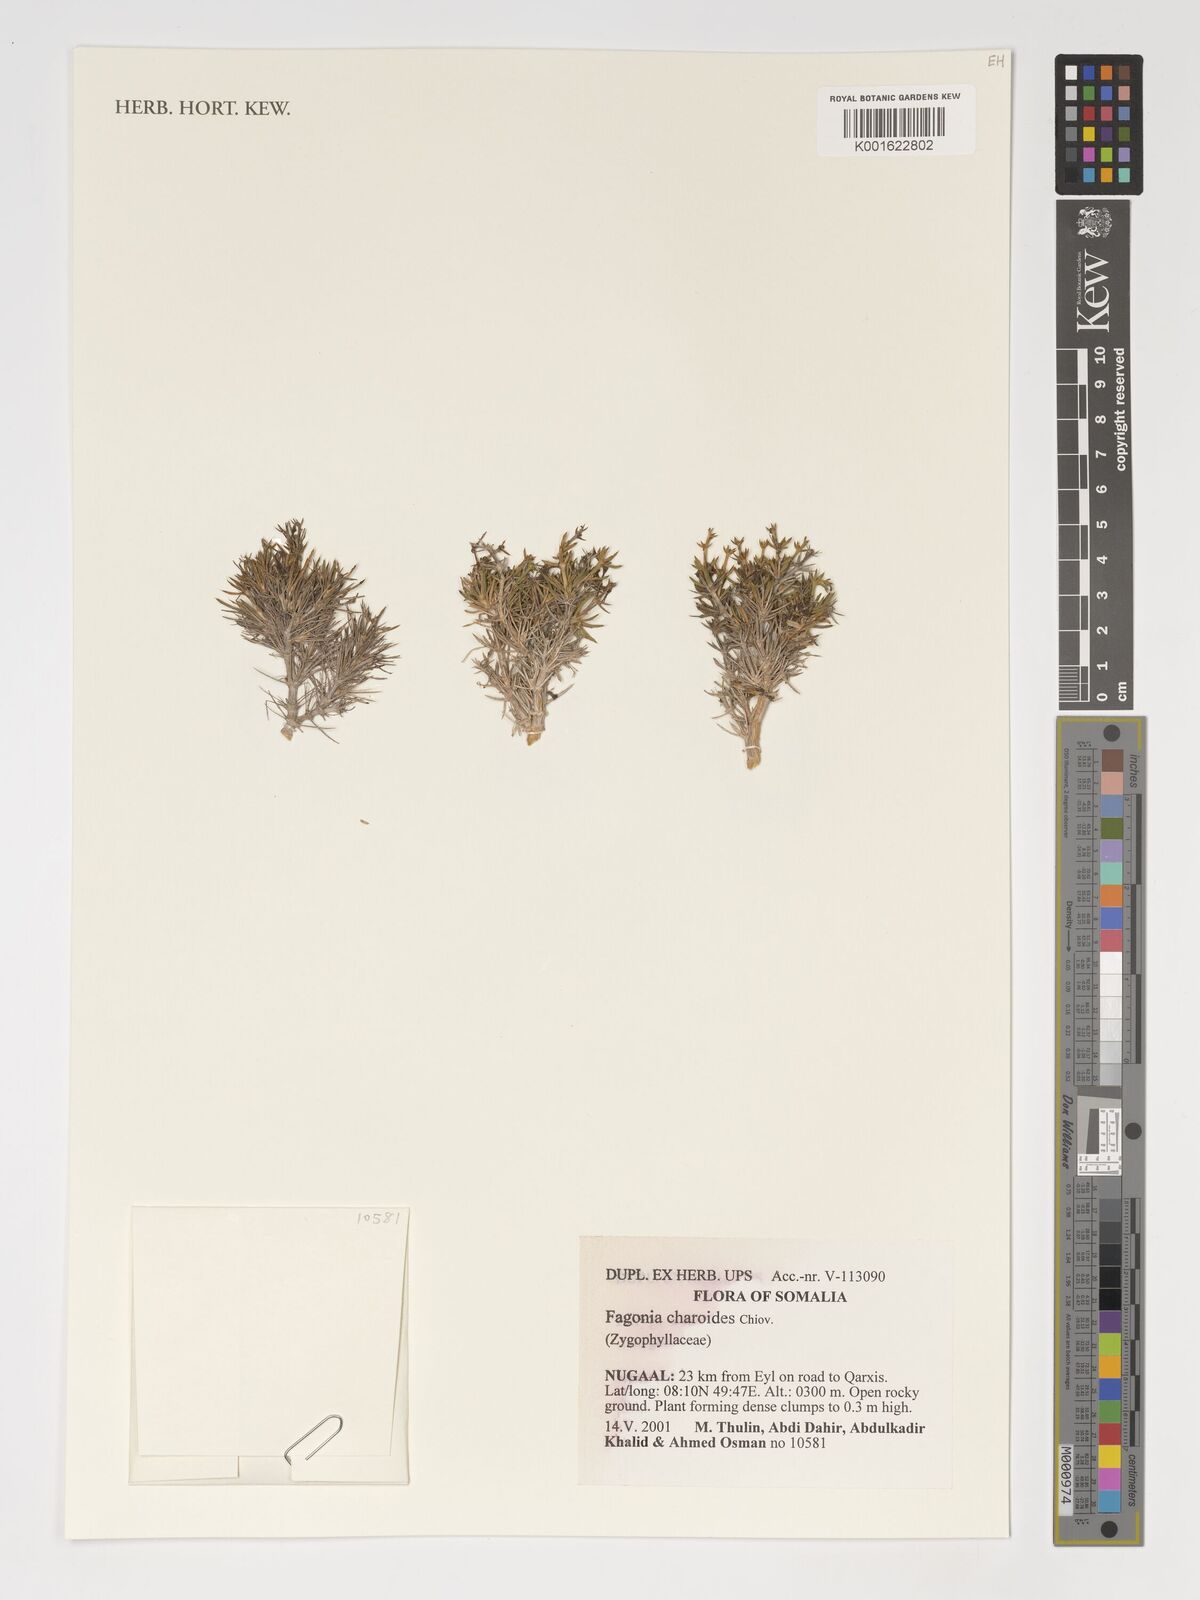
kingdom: Plantae
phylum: Tracheophyta
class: Magnoliopsida
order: Zygophyllales
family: Zygophyllaceae
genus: Fagonia
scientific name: Fagonia charoides
